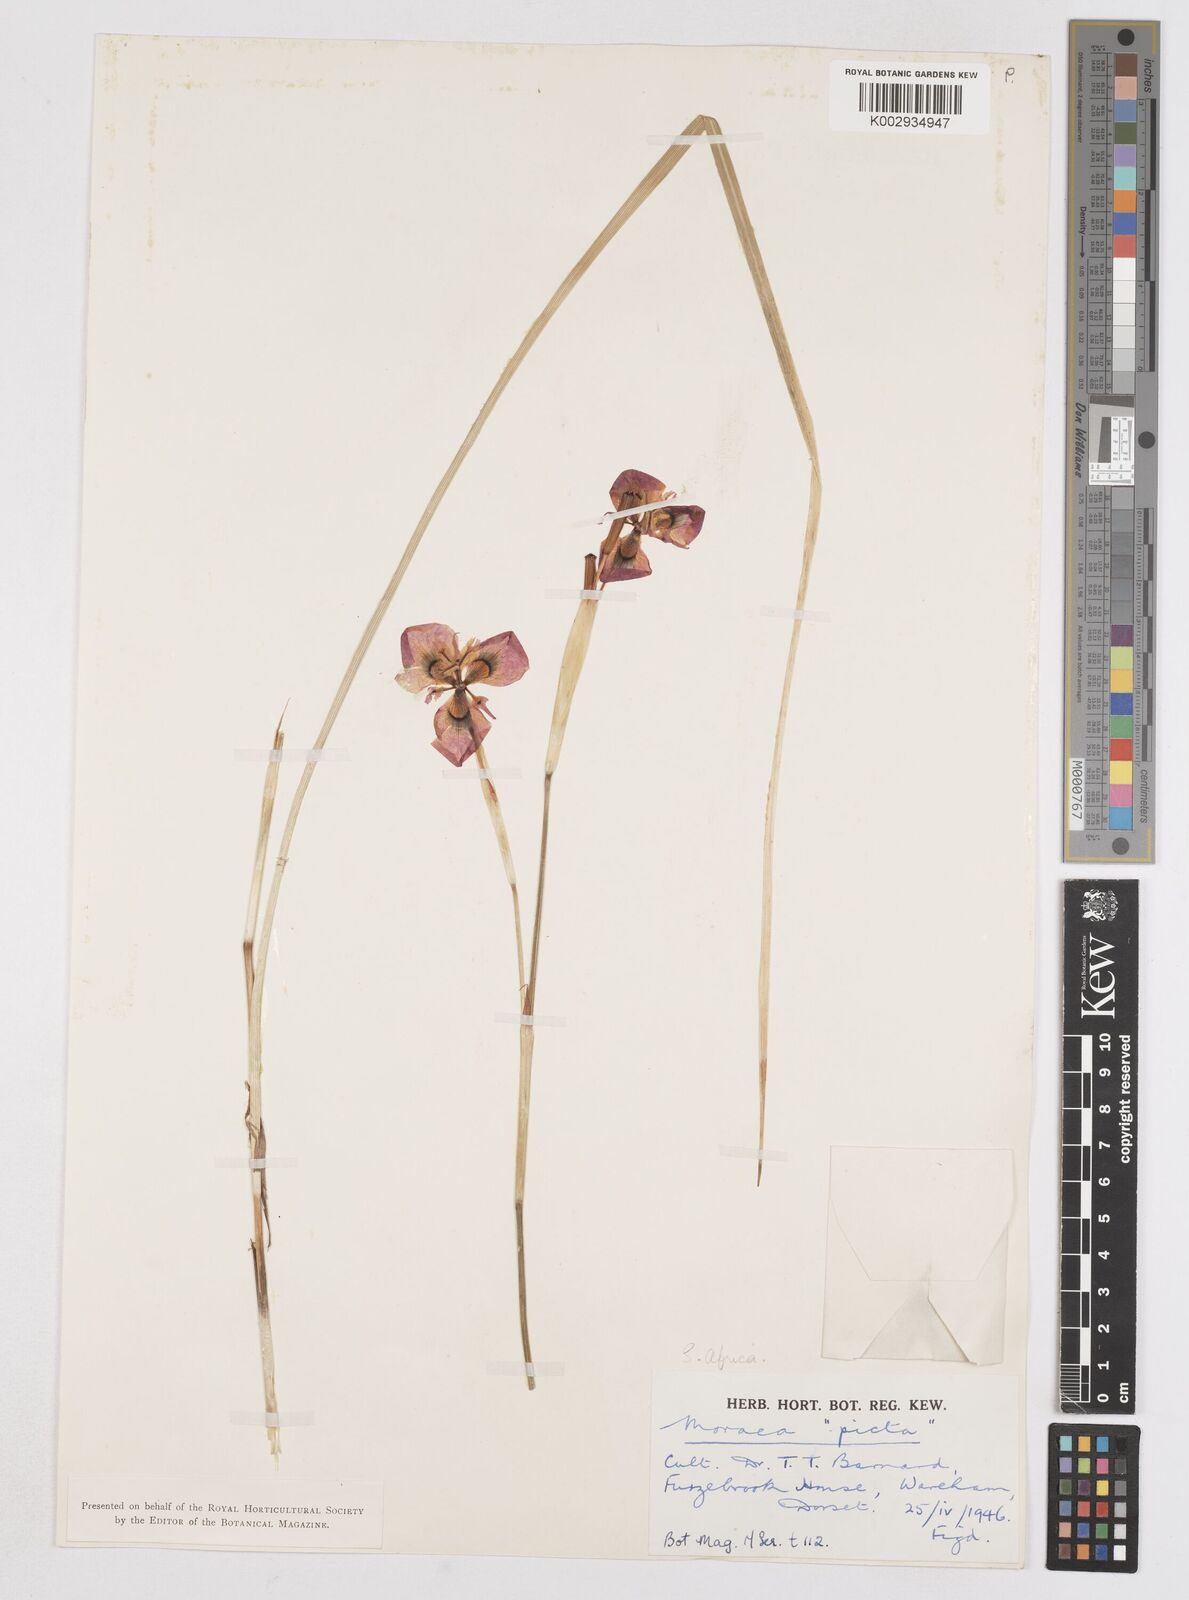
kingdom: Plantae
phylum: Tracheophyta
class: Liliopsida
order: Asparagales
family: Iridaceae
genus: Moraea
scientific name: Moraea villosa
